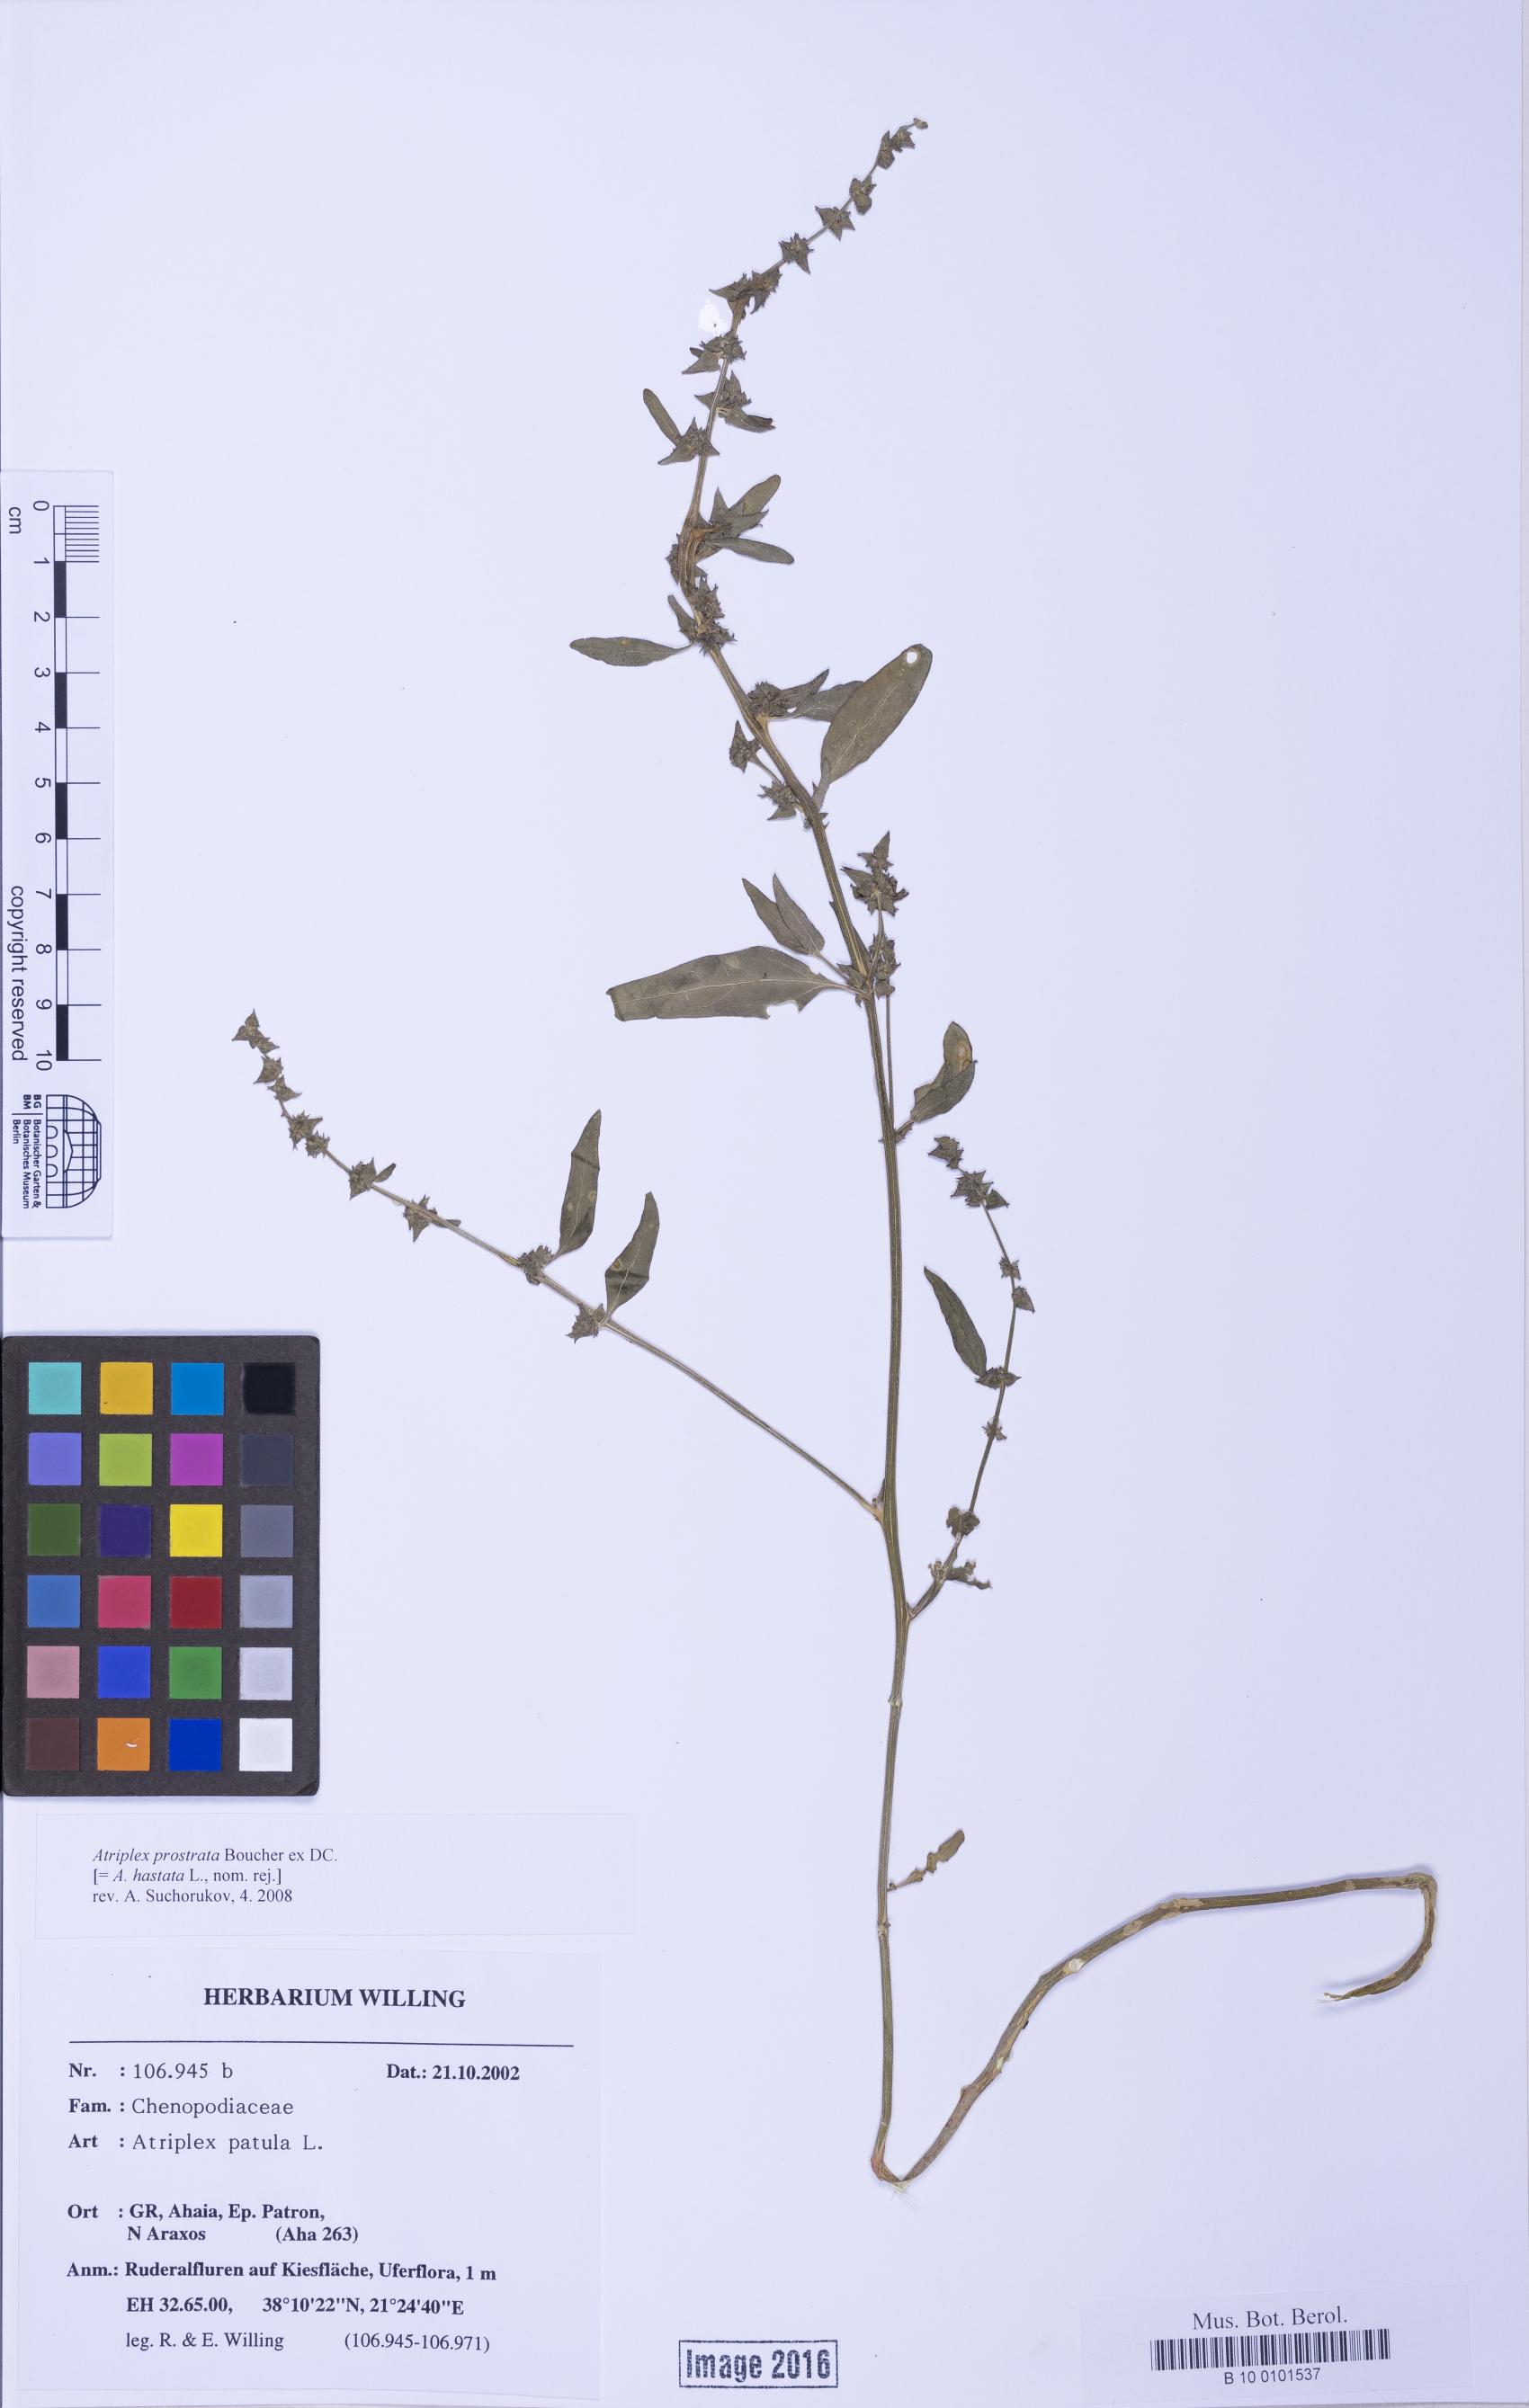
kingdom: Plantae
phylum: Tracheophyta
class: Magnoliopsida
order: Caryophyllales
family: Amaranthaceae
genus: Atriplex
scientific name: Atriplex prostrata
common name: Spear-leaved orache
